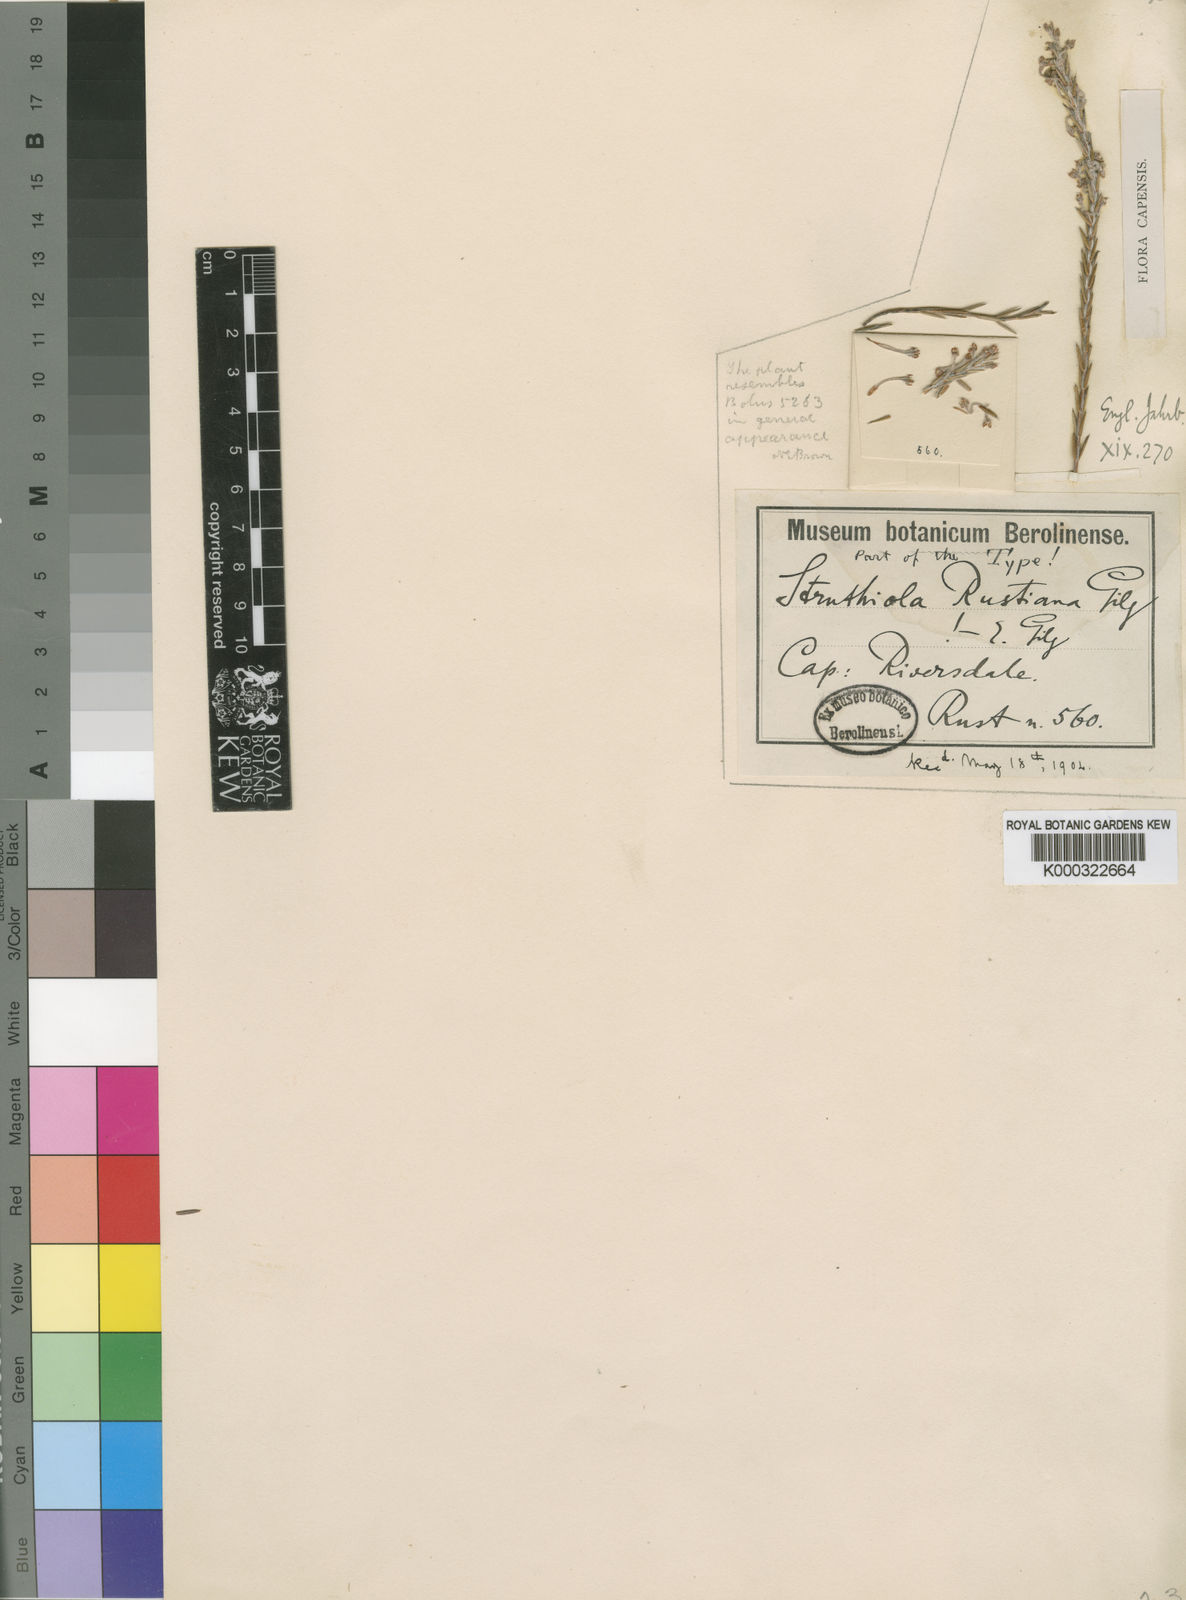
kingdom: Plantae
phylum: Tracheophyta
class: Magnoliopsida
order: Malvales
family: Thymelaeaceae
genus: Struthiola
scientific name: Struthiola ciliata
